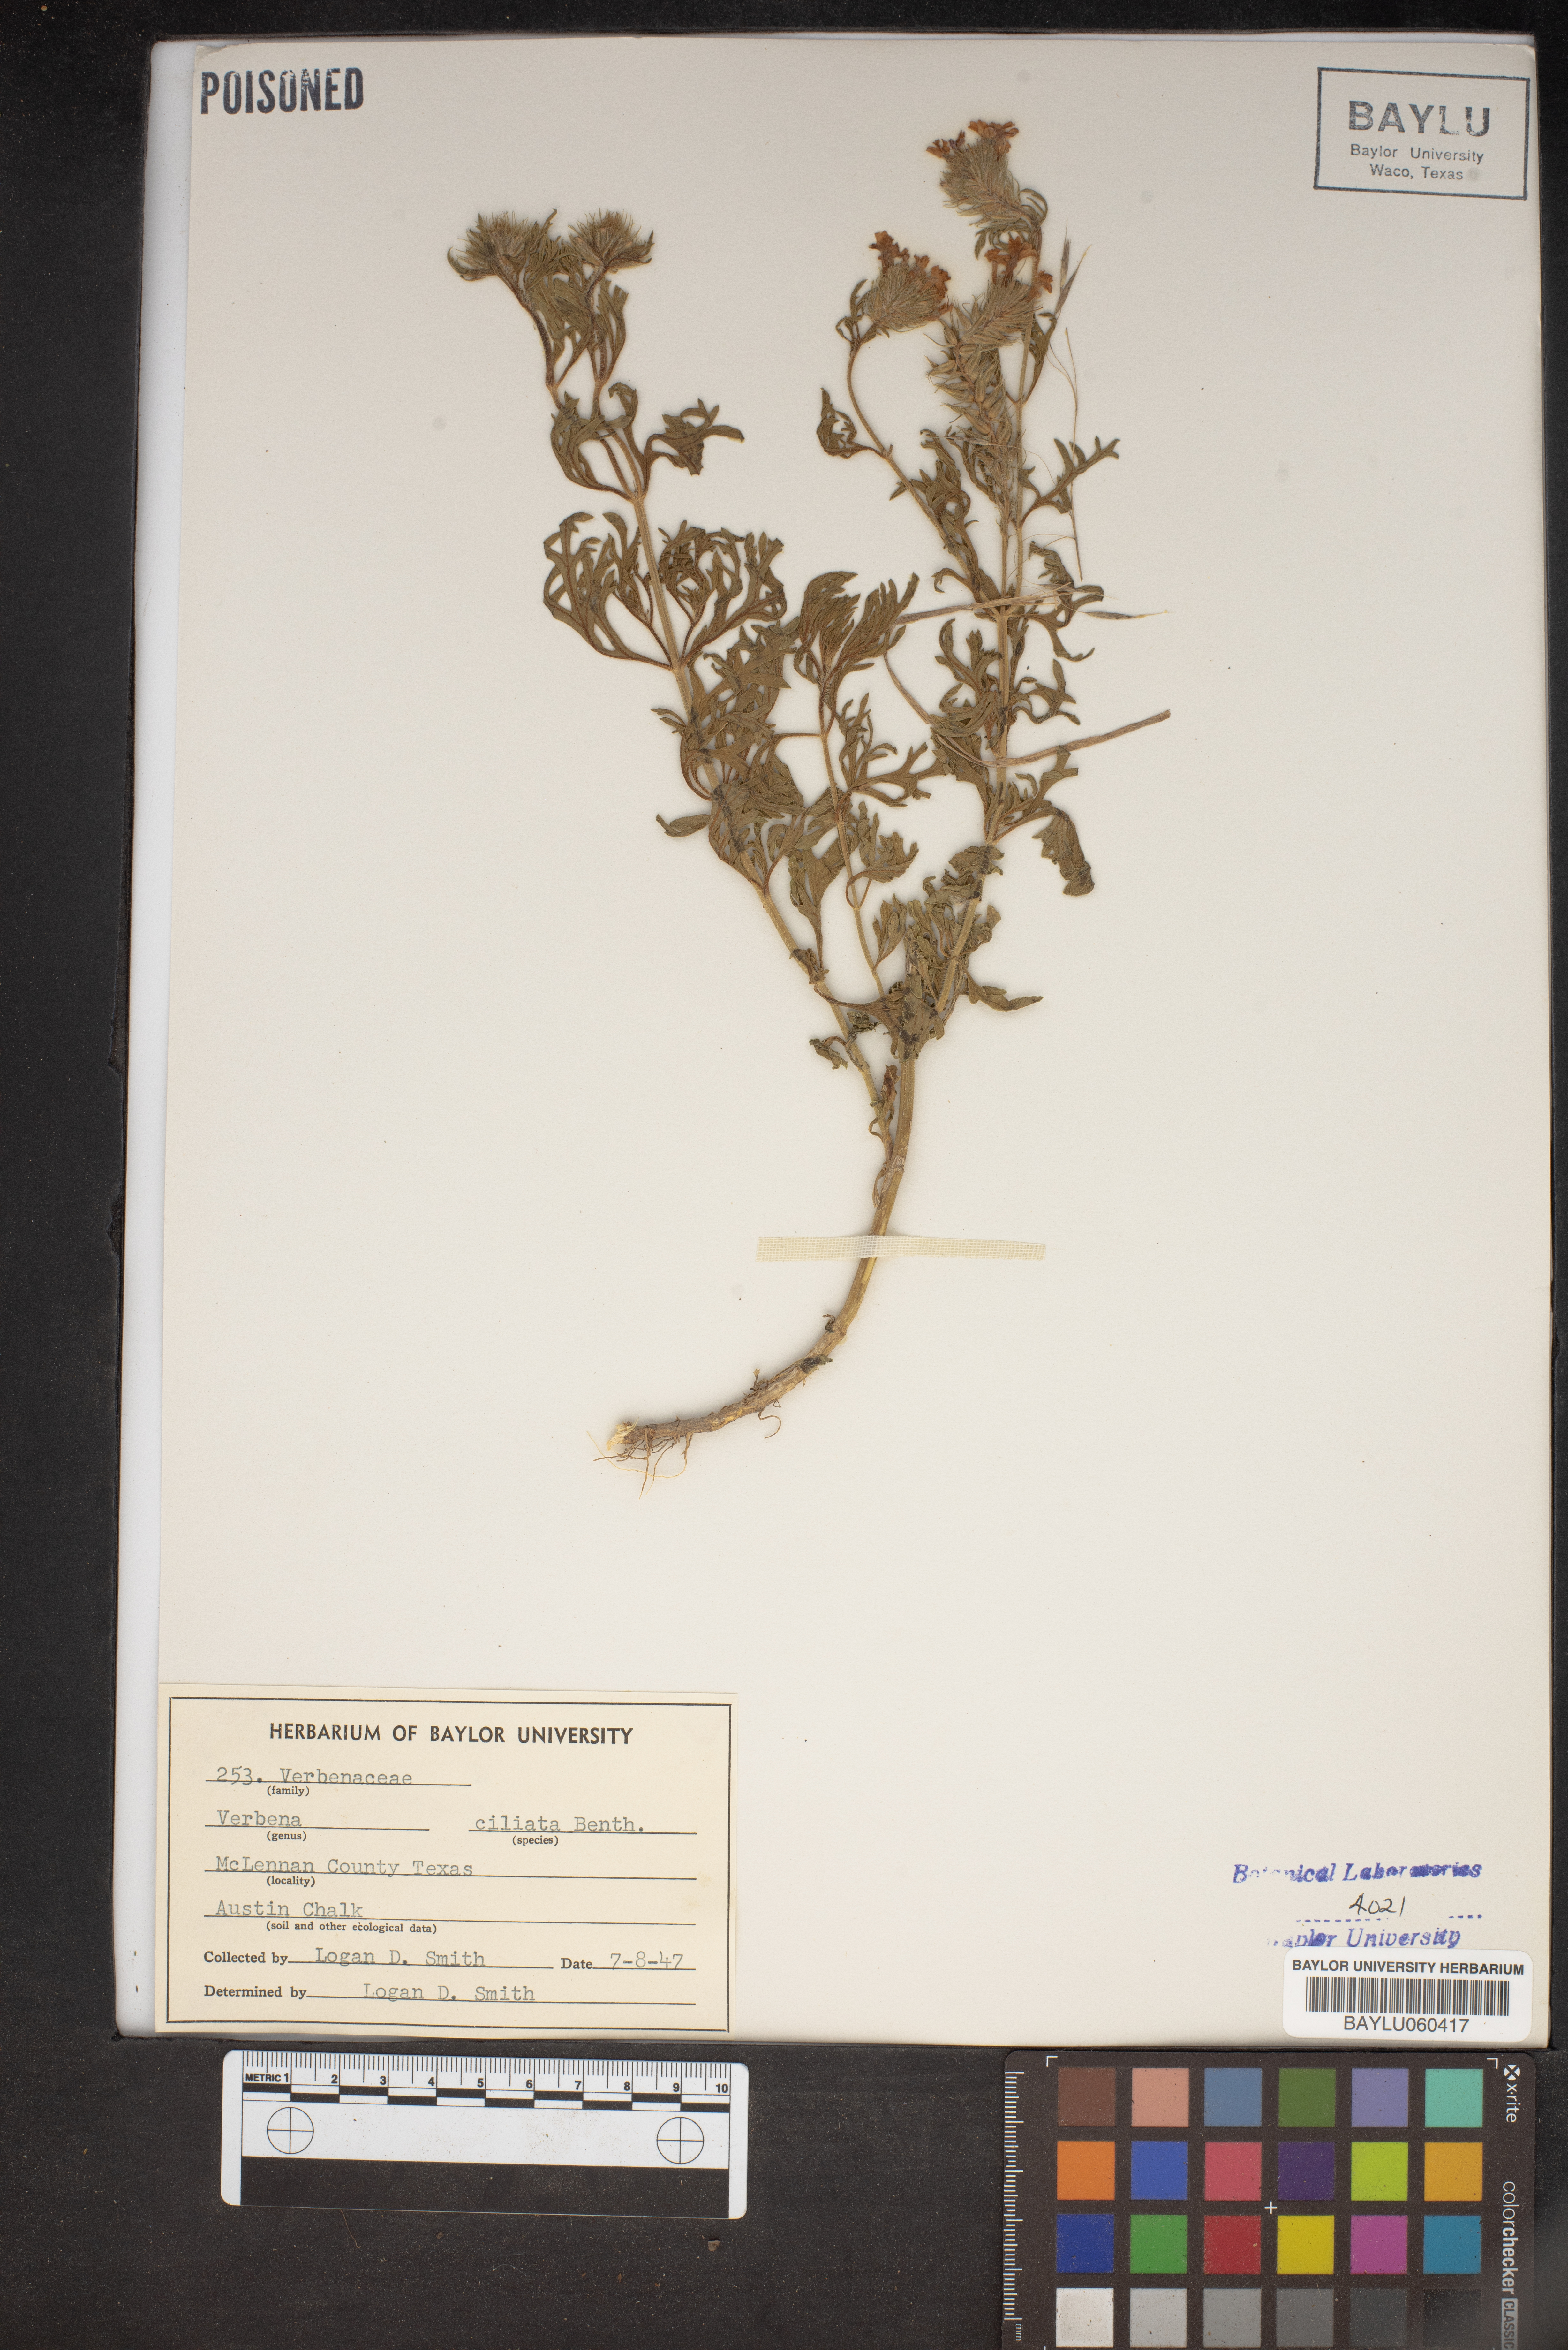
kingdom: Plantae
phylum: Tracheophyta
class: Magnoliopsida
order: Lamiales
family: Verbenaceae
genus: Verbena
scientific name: Verbena bipinnatifida
